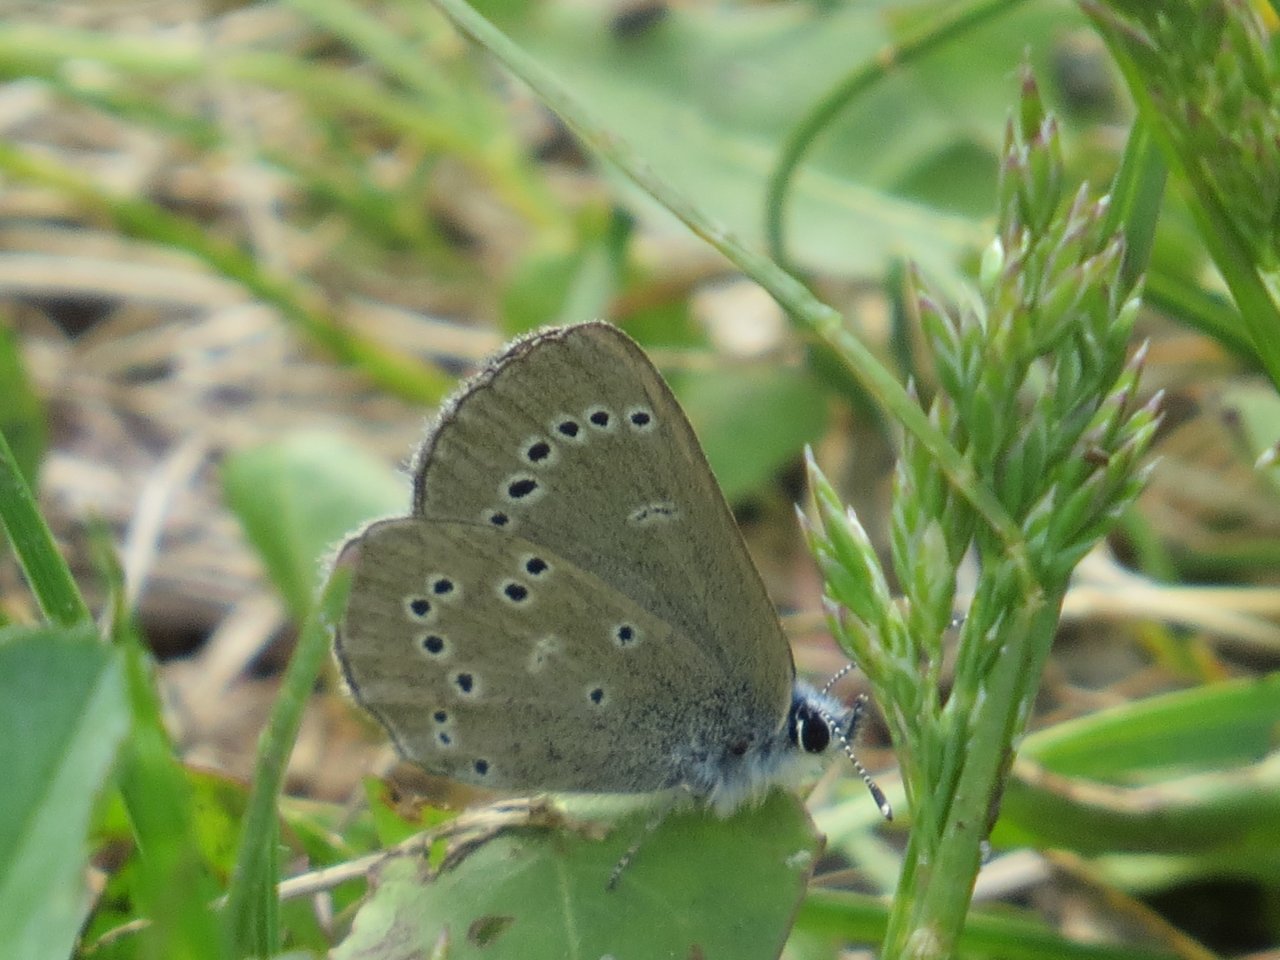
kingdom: Animalia
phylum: Arthropoda
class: Insecta
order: Lepidoptera
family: Lycaenidae
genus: Glaucopsyche
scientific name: Glaucopsyche lygdamus
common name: Silvery Blue
